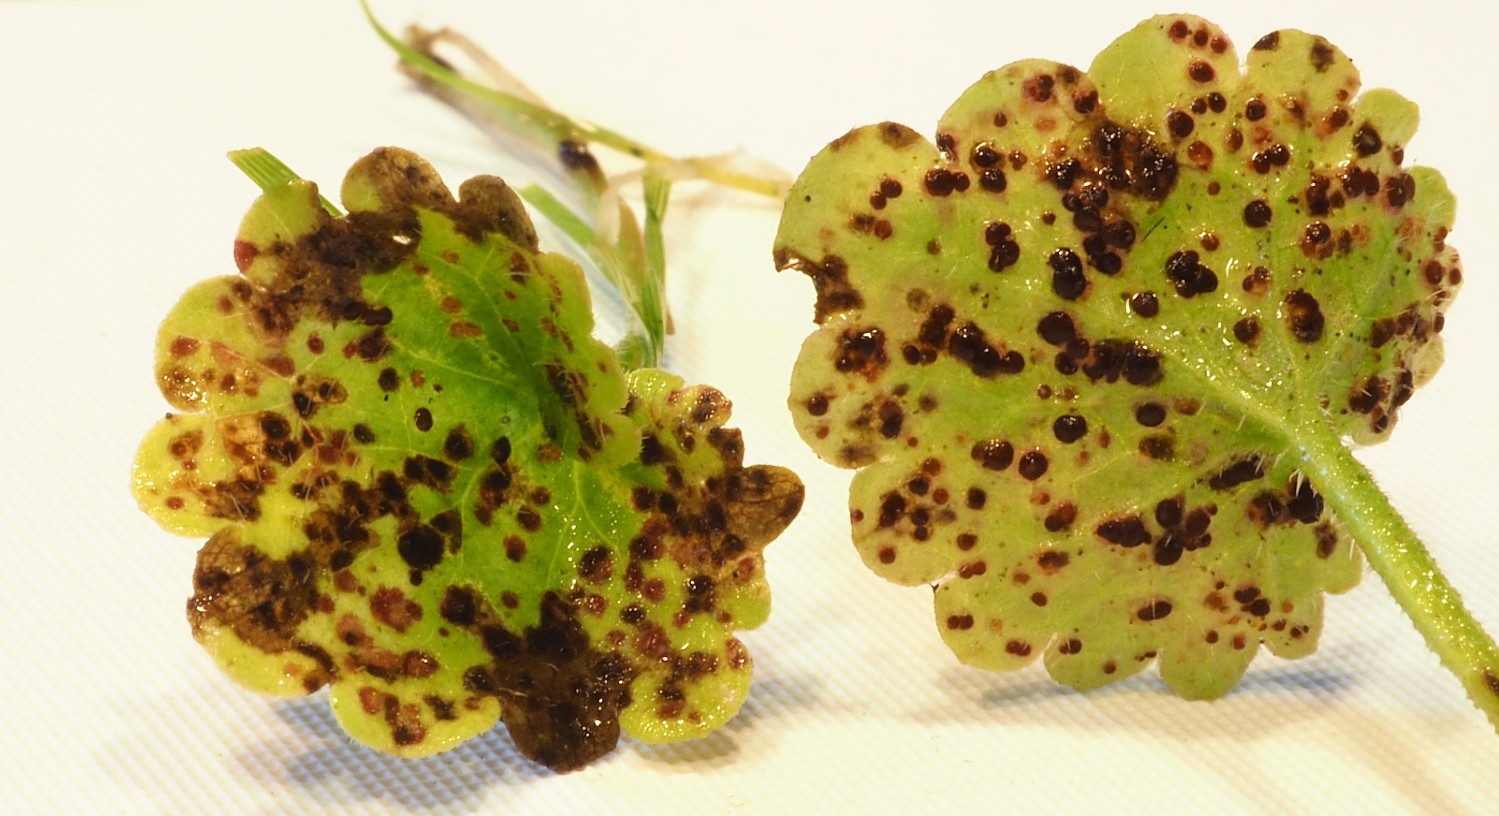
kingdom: Fungi
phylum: Basidiomycota
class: Pucciniomycetes
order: Pucciniales
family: Pucciniaceae
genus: Puccinia
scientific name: Puccinia glechomatis
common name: Ground ivy rust
